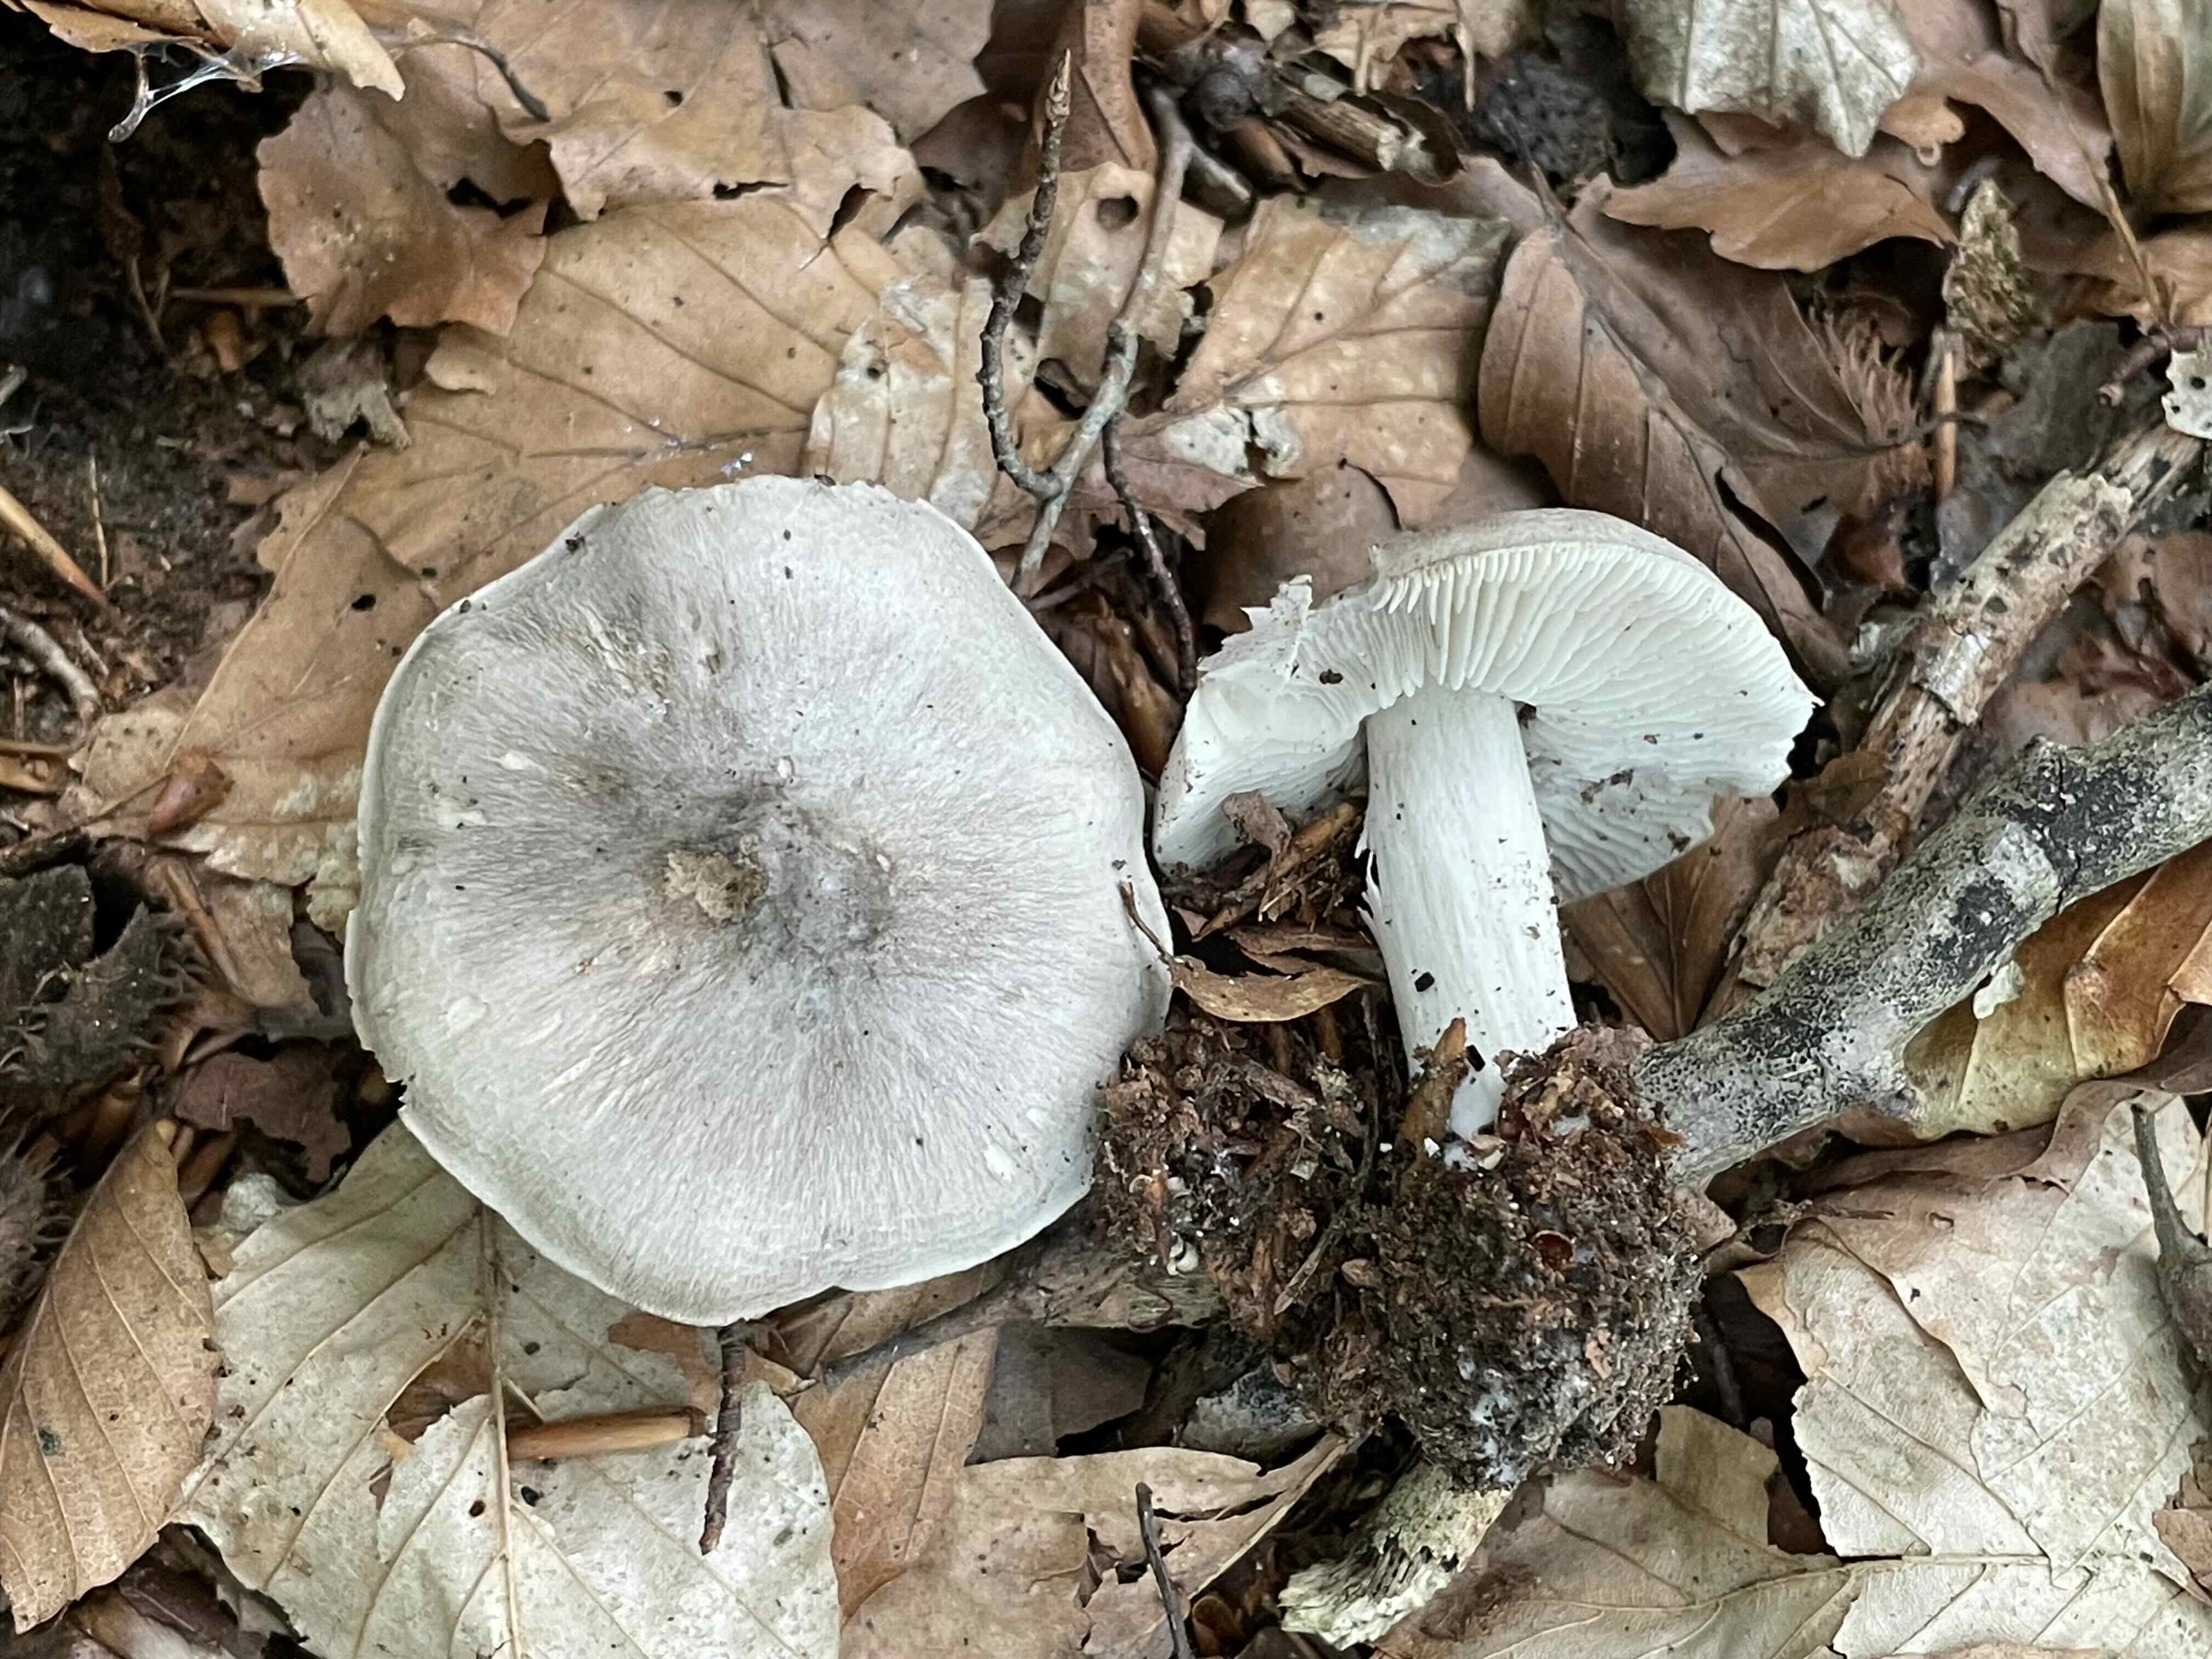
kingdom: Fungi
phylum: Basidiomycota
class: Agaricomycetes
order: Agaricales
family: Tricholomataceae
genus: Tricholoma
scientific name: Tricholoma sciodes
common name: stribet ridderhat
